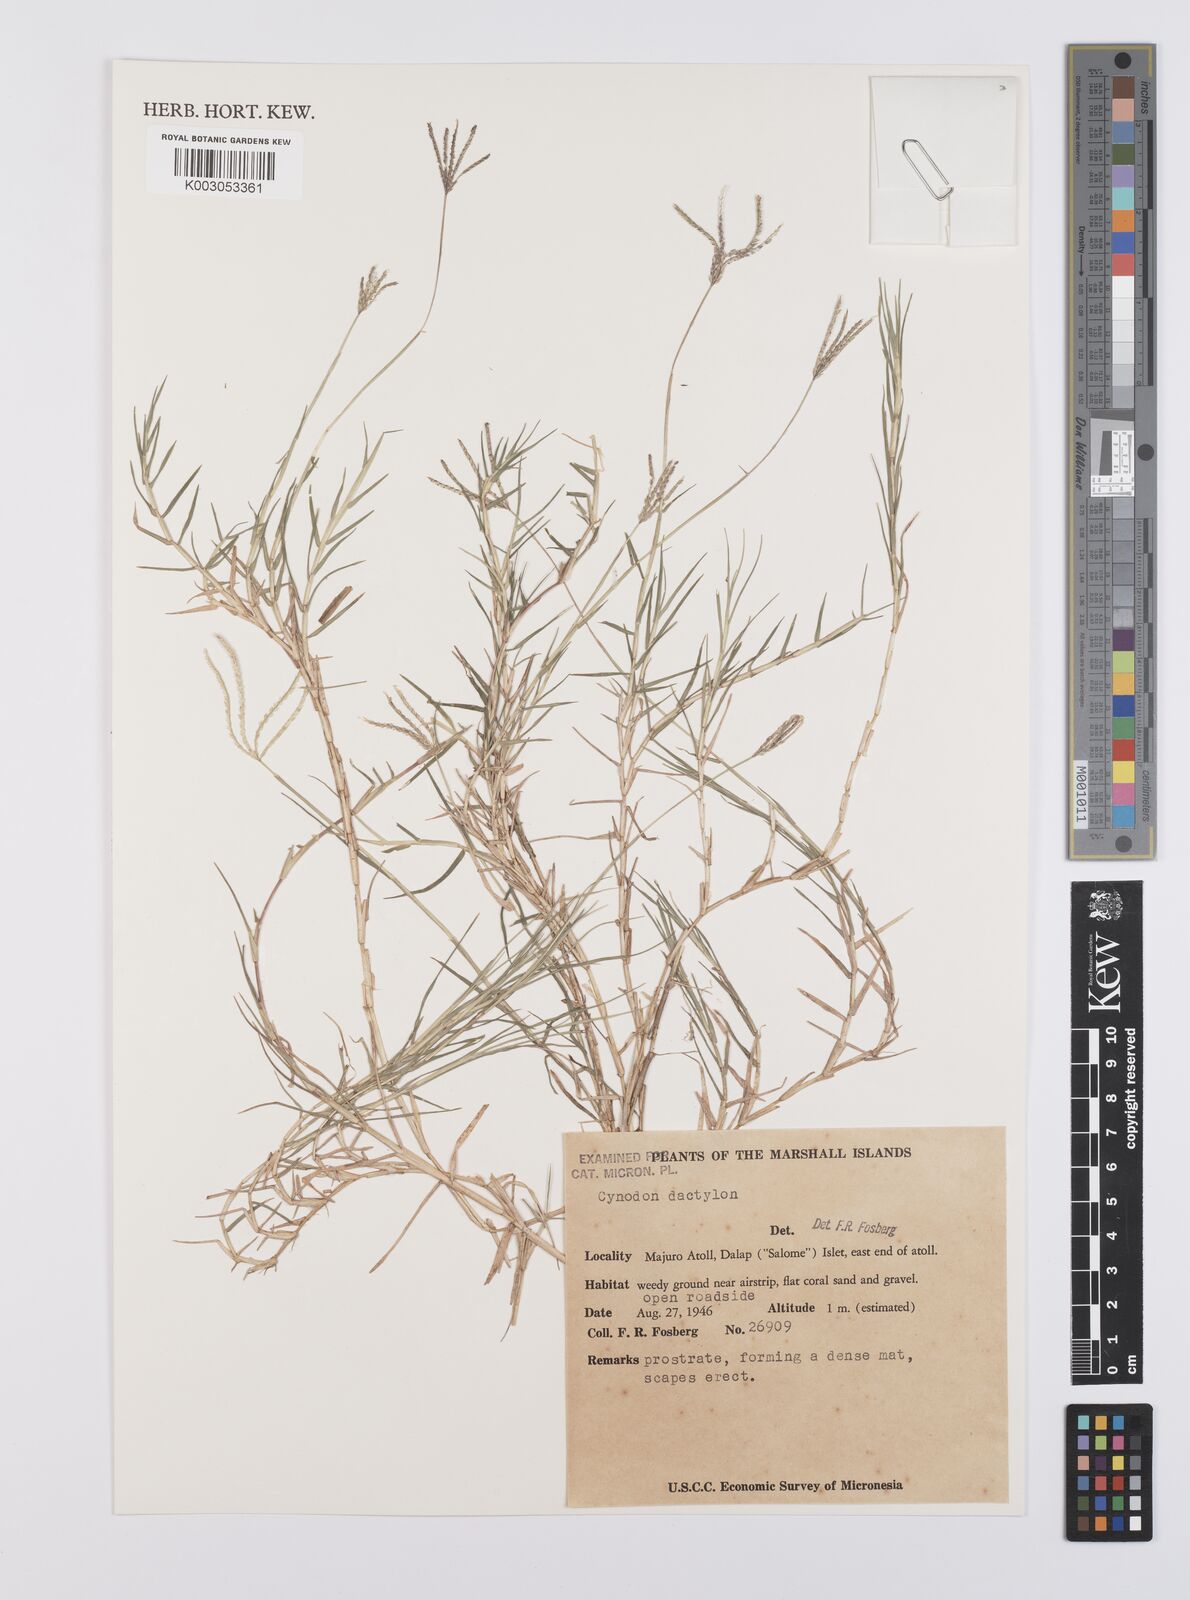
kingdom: Plantae
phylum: Tracheophyta
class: Liliopsida
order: Poales
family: Poaceae
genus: Cynodon
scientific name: Cynodon dactylon
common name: Bermuda grass
